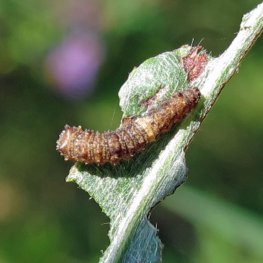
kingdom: Animalia
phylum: Arthropoda
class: Insecta
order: Lepidoptera
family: Nymphalidae
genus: Limenitis
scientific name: Limenitis archippus
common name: Viceroy
